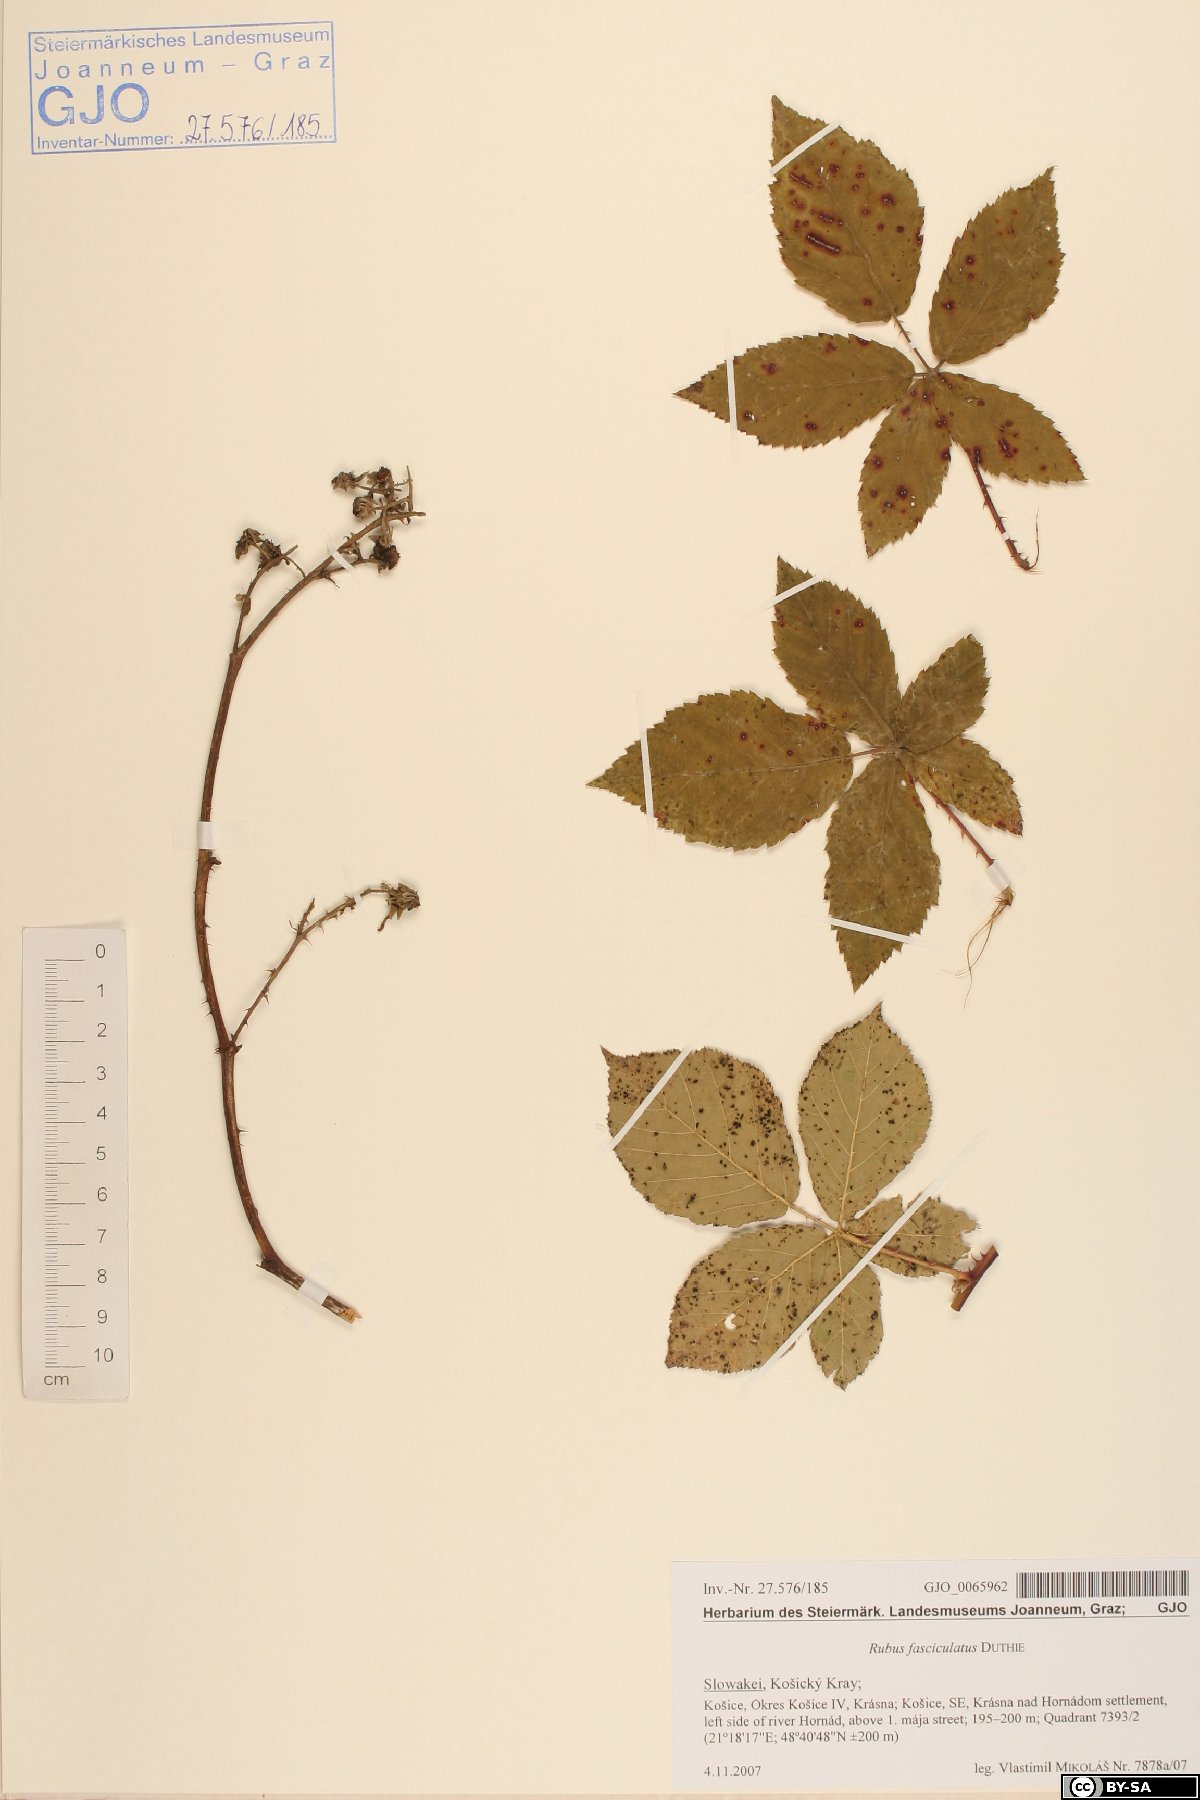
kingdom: Plantae
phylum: Tracheophyta
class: Magnoliopsida
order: Rosales
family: Rosaceae
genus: Rubus
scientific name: Rubus fasciculatus
